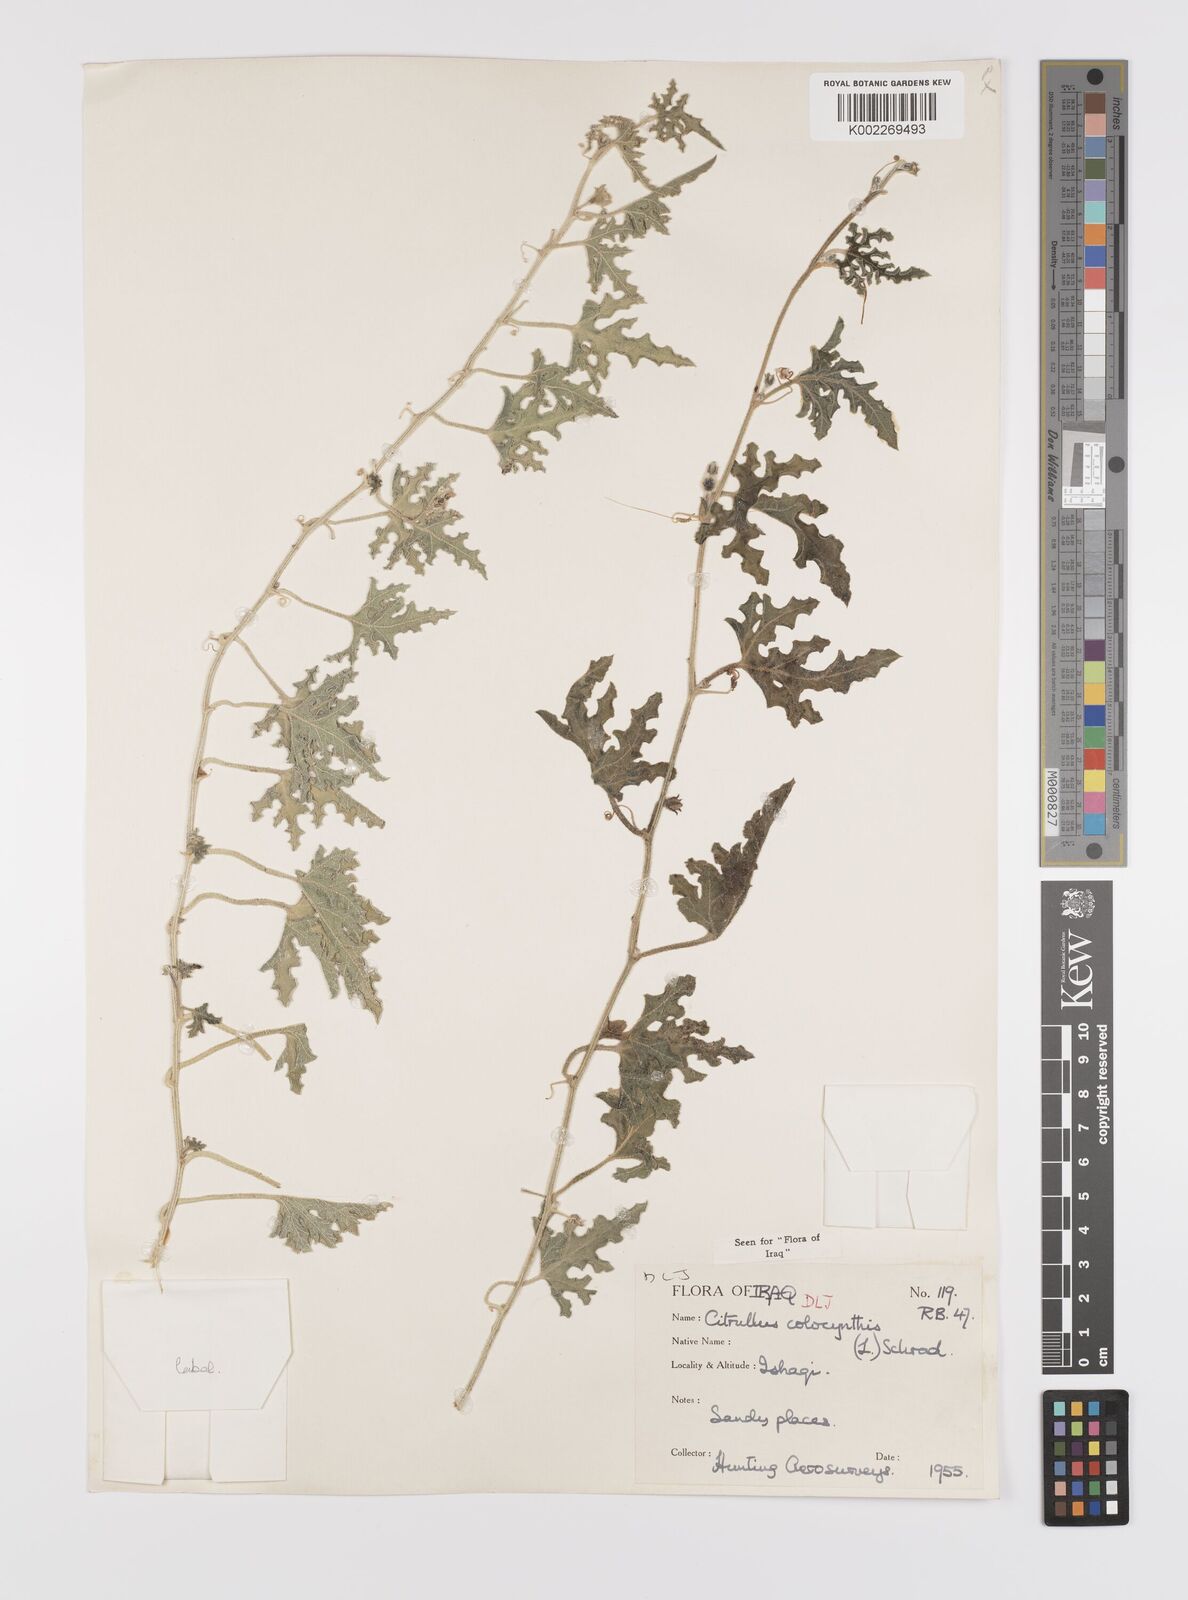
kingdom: Plantae
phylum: Tracheophyta
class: Magnoliopsida
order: Cucurbitales
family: Cucurbitaceae
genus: Citrullus
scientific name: Citrullus colocynthis
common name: Colocynth
